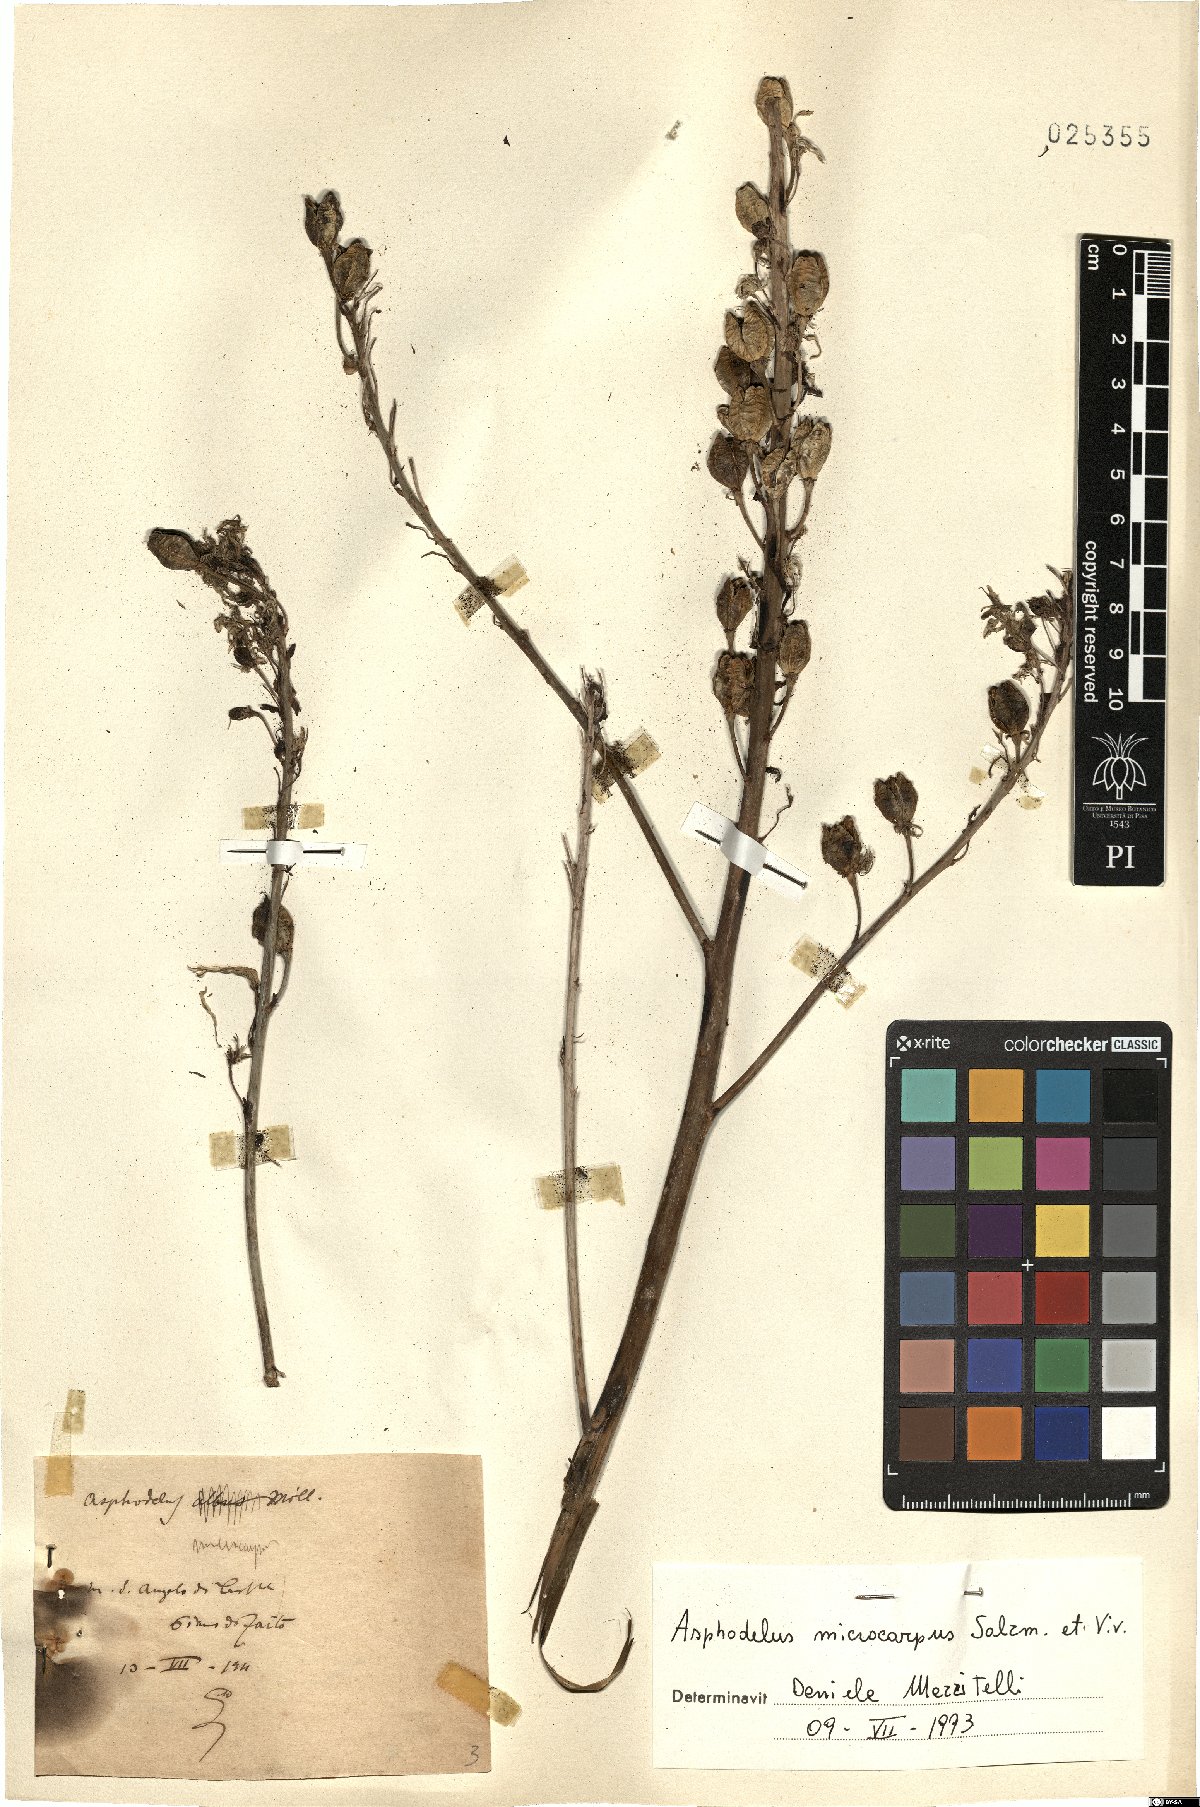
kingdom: Plantae
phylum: Tracheophyta
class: Liliopsida
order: Asparagales
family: Asphodelaceae
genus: Asphodelus
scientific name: Asphodelus ramosus
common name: Silverrod
